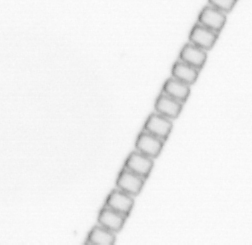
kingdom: Chromista
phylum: Ochrophyta
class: Bacillariophyceae
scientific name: Bacillariophyceae
